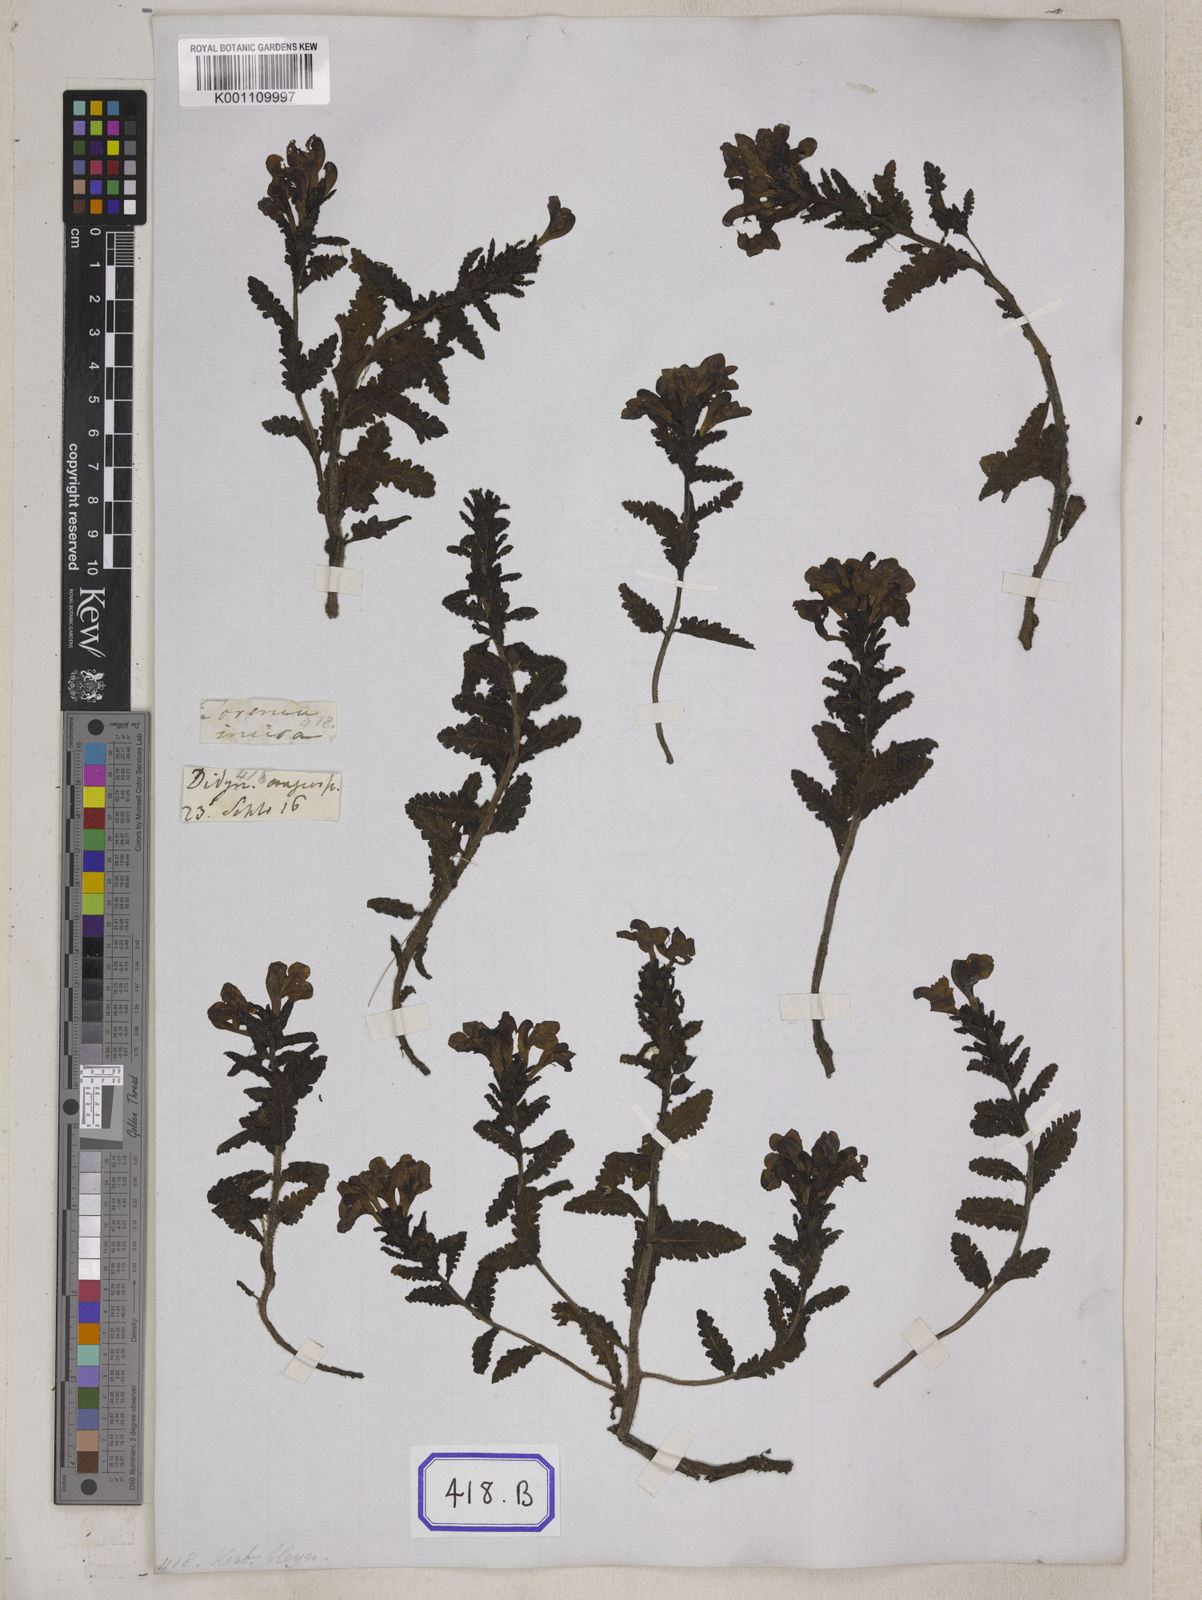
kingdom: Plantae
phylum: Tracheophyta
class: Magnoliopsida
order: Lamiales
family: Orobanchaceae
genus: Pedicularis
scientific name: Pedicularis bifida
